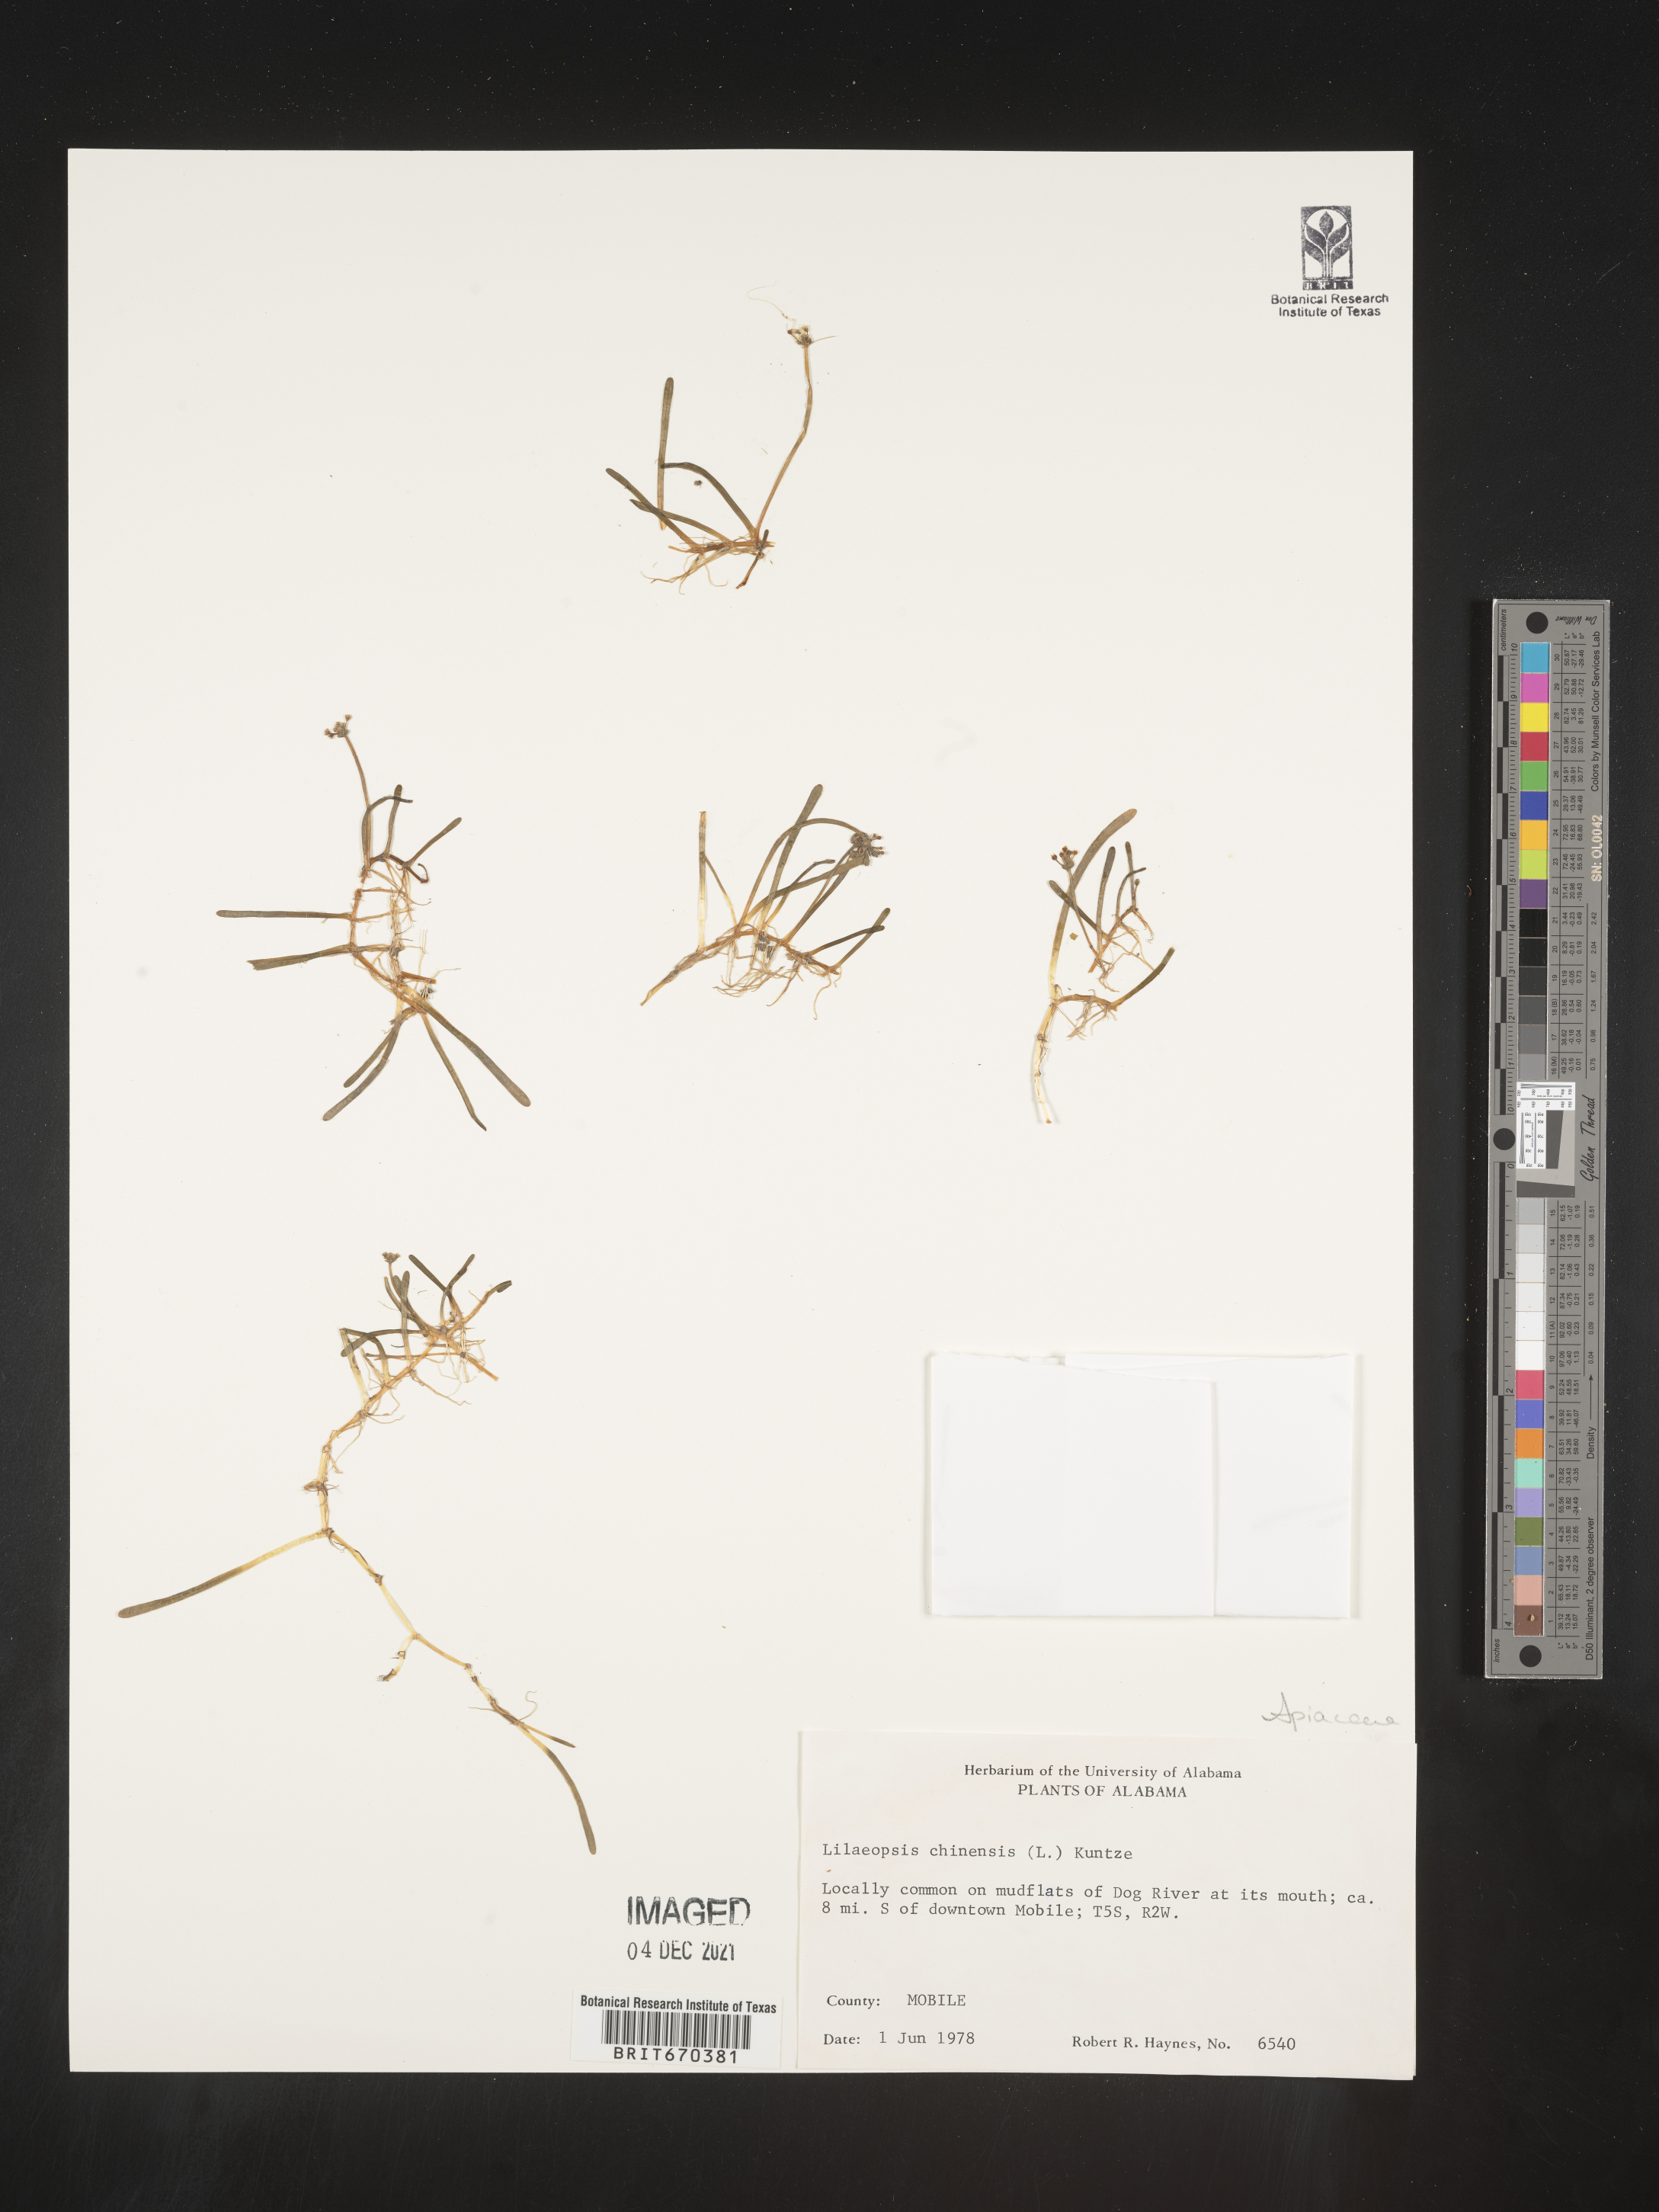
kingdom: Plantae
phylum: Tracheophyta
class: Magnoliopsida
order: Apiales
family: Apiaceae
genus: Lilaeopsis
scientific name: Lilaeopsis
